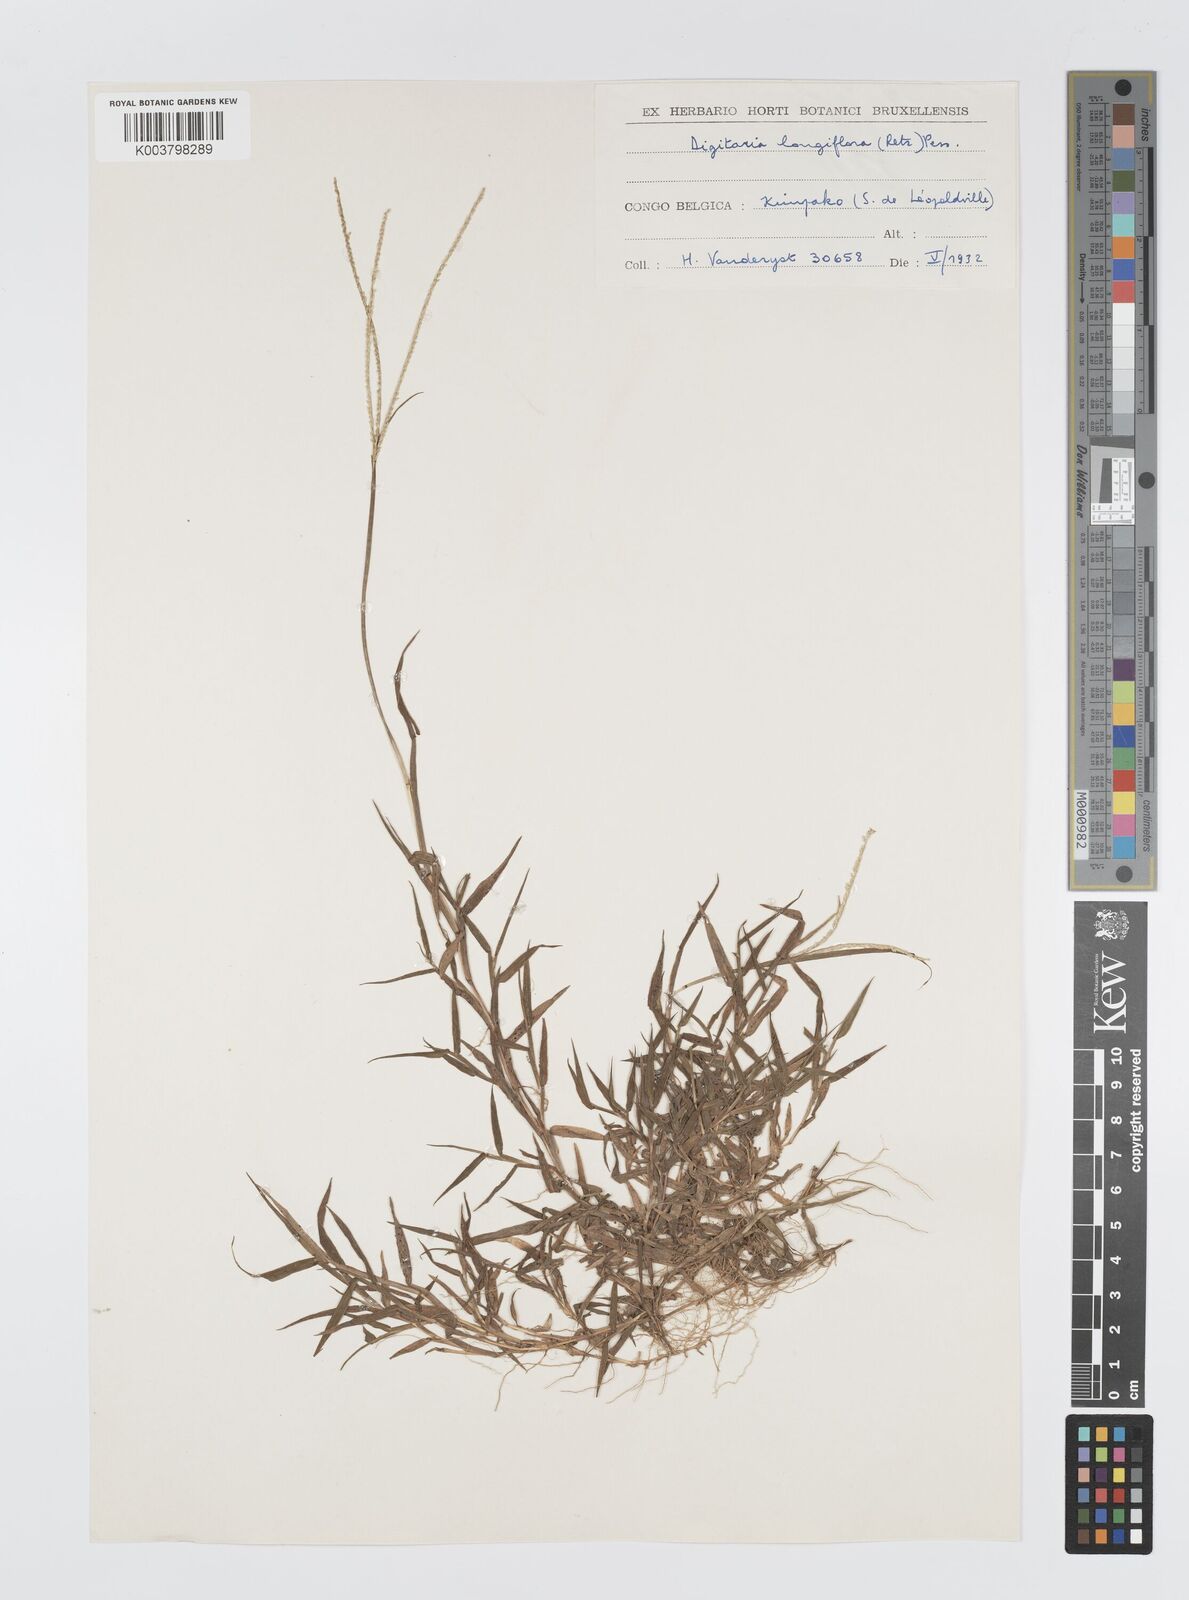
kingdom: Plantae
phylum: Tracheophyta
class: Liliopsida
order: Poales
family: Poaceae
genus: Digitaria
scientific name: Digitaria longiflora
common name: Wire crabgrass
